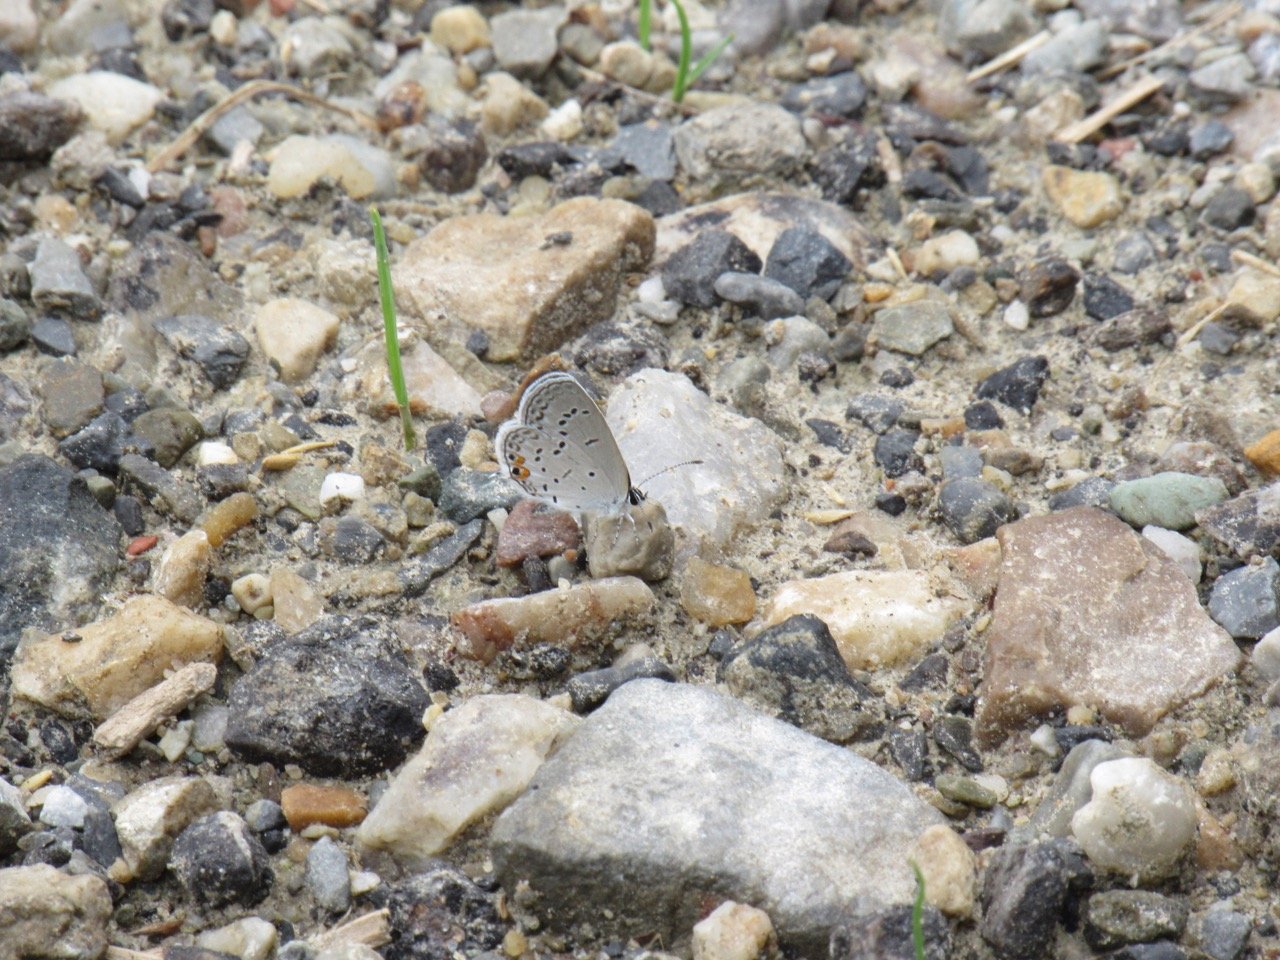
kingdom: Animalia
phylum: Arthropoda
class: Insecta
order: Lepidoptera
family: Lycaenidae
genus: Elkalyce
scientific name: Elkalyce comyntas
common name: Eastern Tailed-Blue
